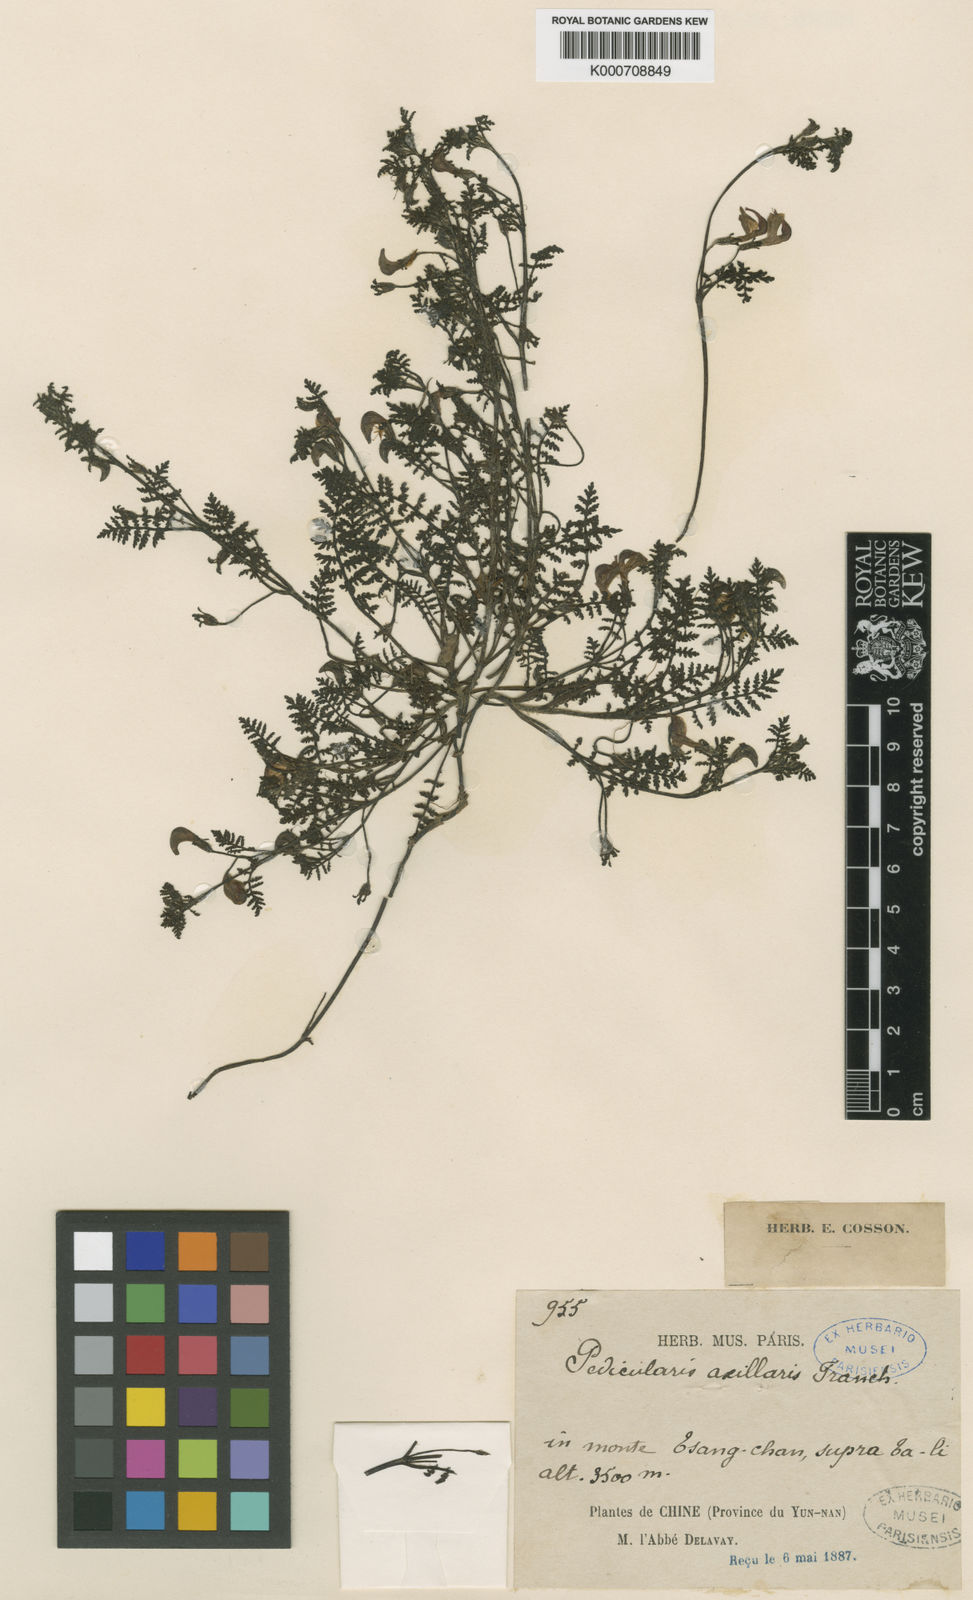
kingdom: Plantae
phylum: Tracheophyta
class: Magnoliopsida
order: Lamiales
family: Orobanchaceae
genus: Pedicularis
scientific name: Pedicularis axillaris
